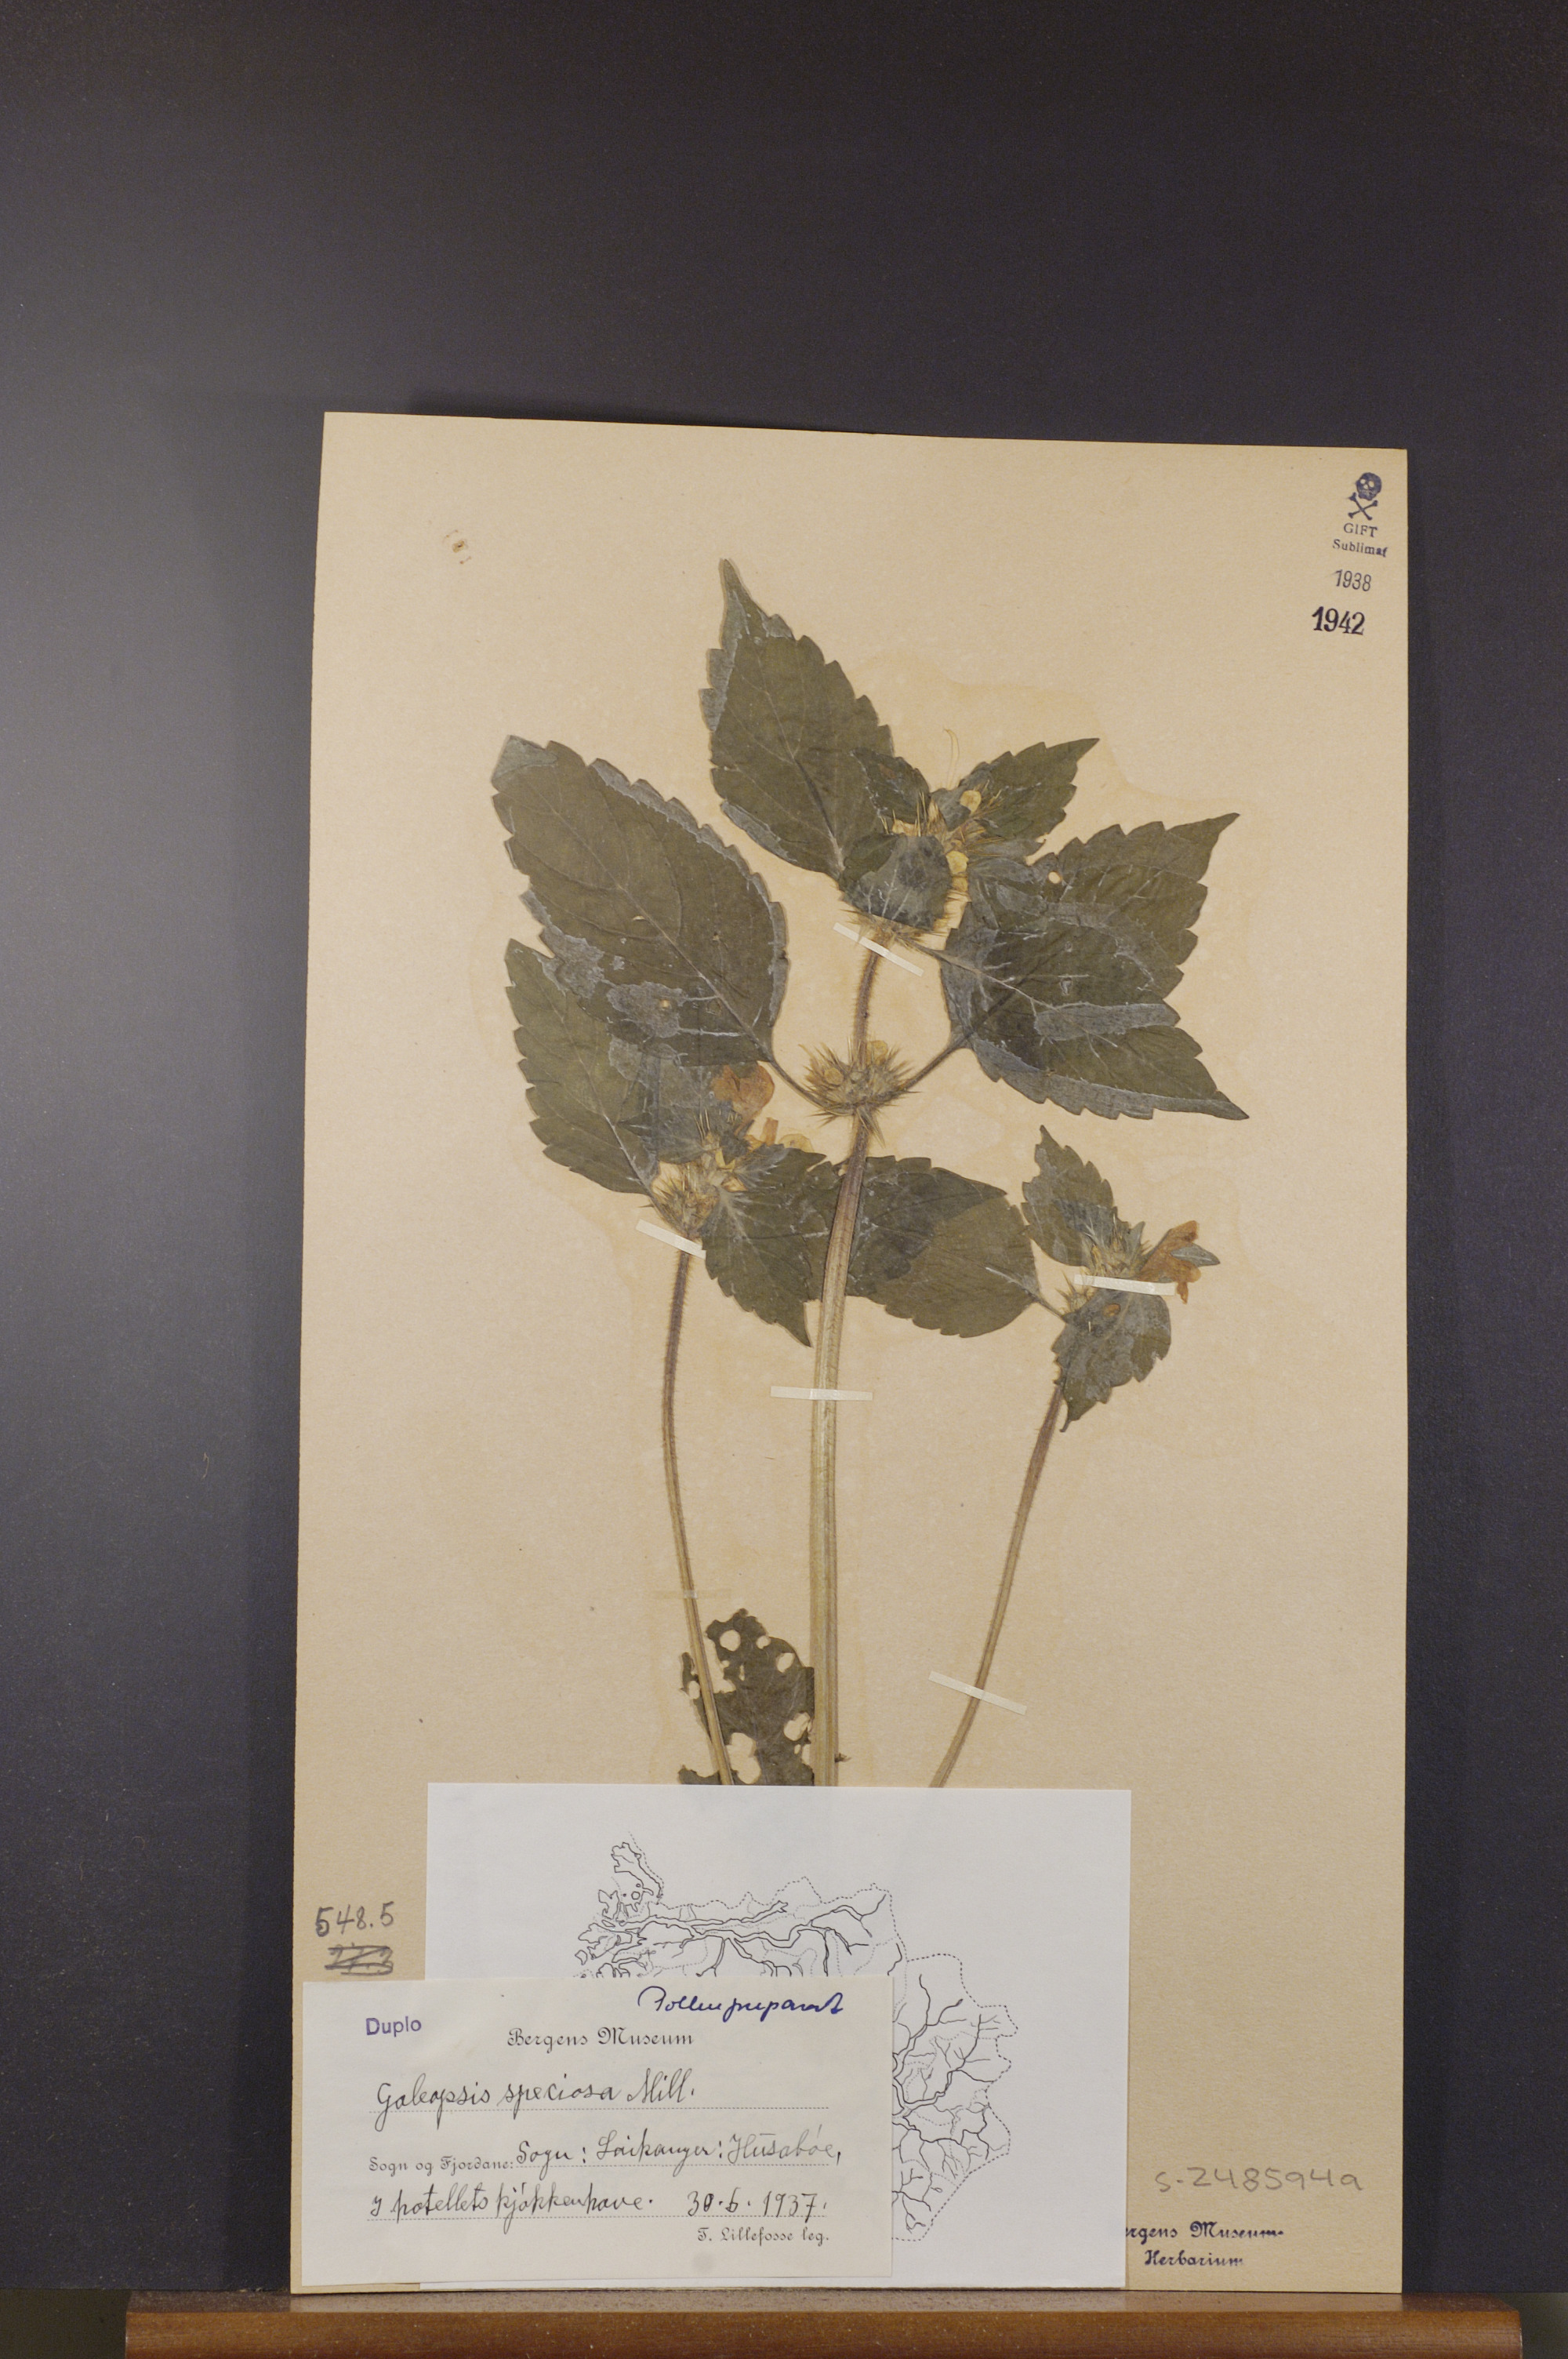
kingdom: Plantae
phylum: Tracheophyta
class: Magnoliopsida
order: Lamiales
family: Lamiaceae
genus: Galeopsis
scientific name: Galeopsis speciosa
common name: Large-flowered hemp-nettle
